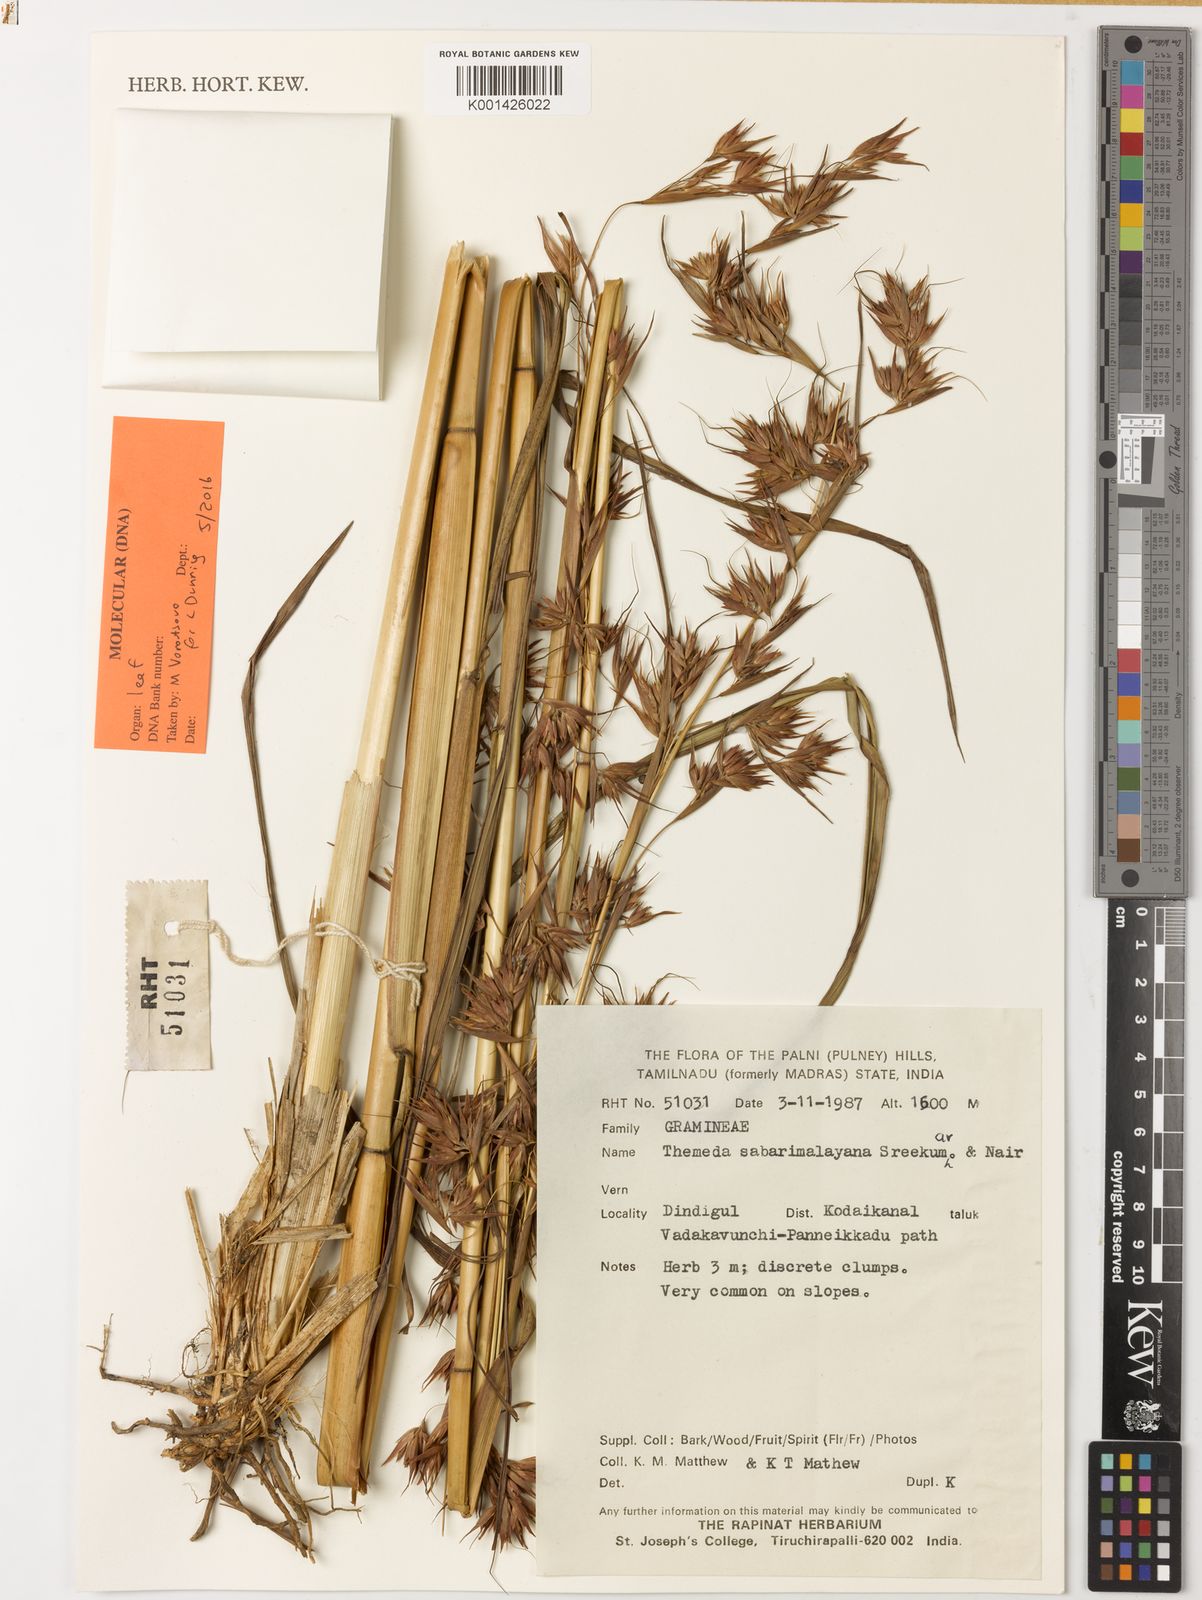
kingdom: Plantae
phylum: Tracheophyta
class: Liliopsida
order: Poales
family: Poaceae
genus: Themeda
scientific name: Themeda sabarimalayana
